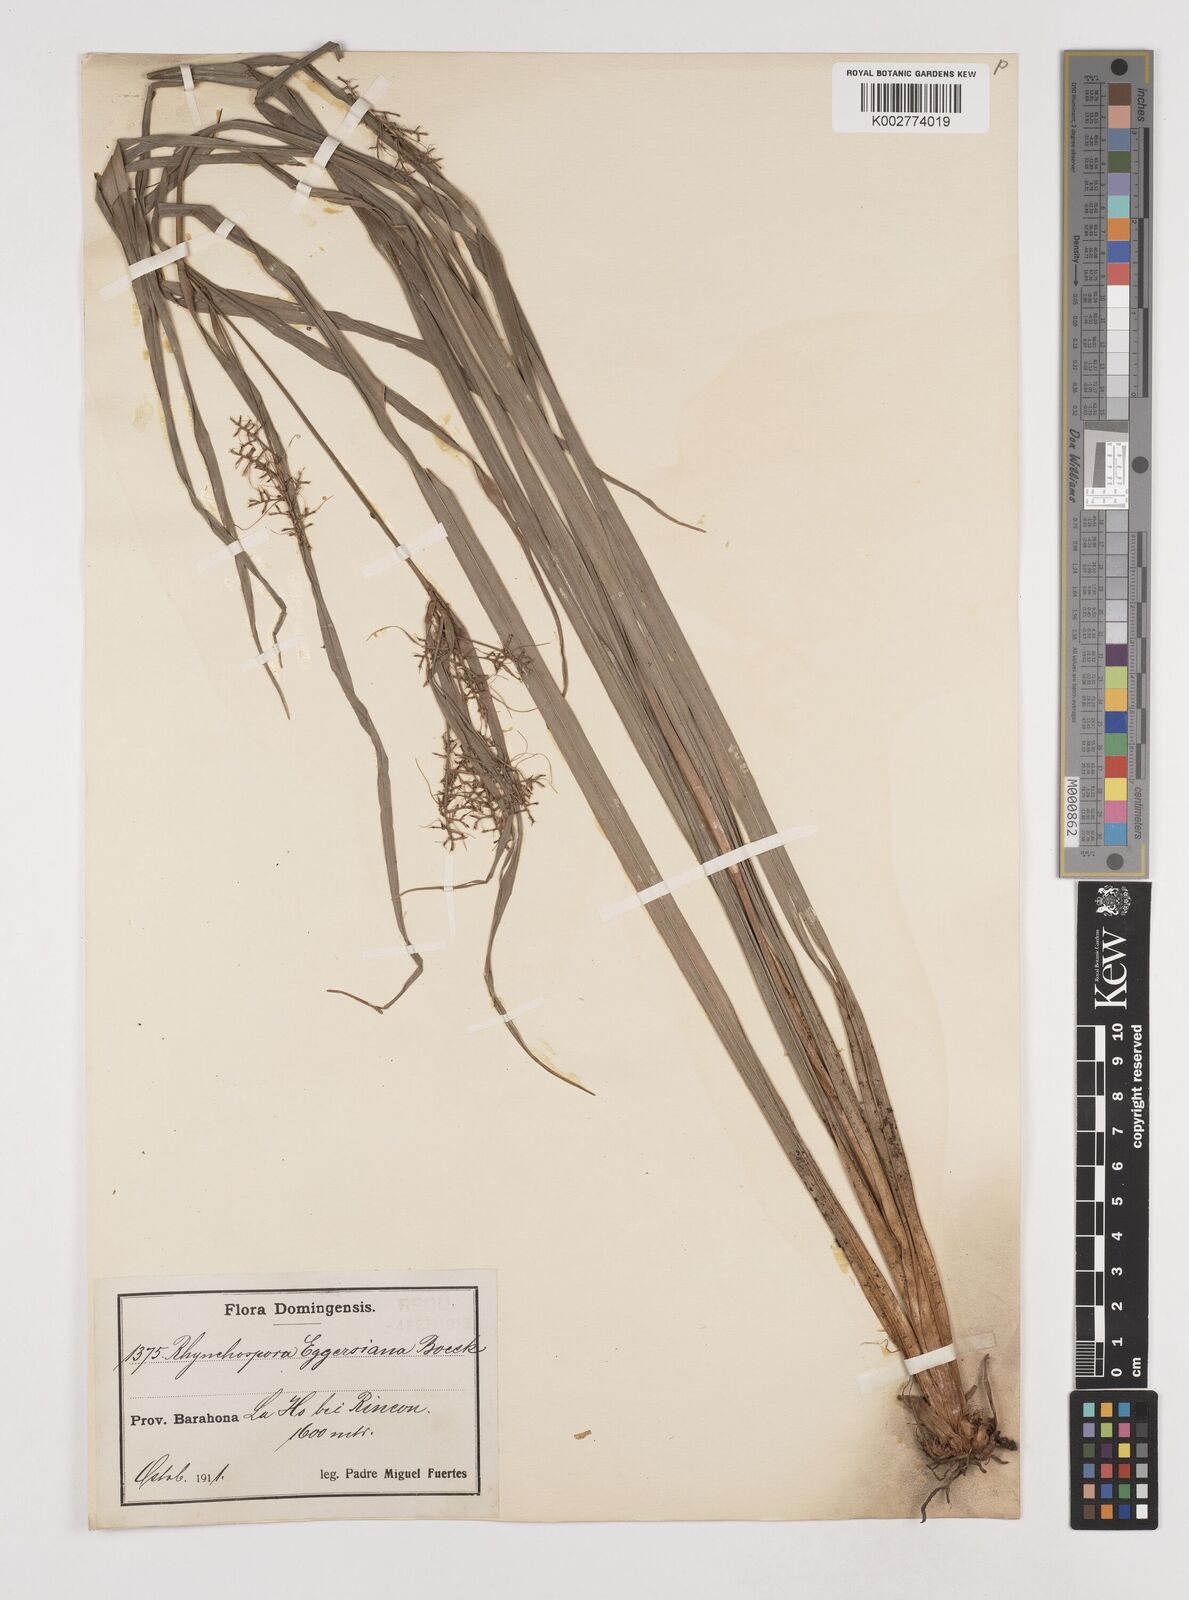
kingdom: Plantae
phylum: Tracheophyta
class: Liliopsida
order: Poales
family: Cyperaceae
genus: Rhynchospora
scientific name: Rhynchospora longiflora
